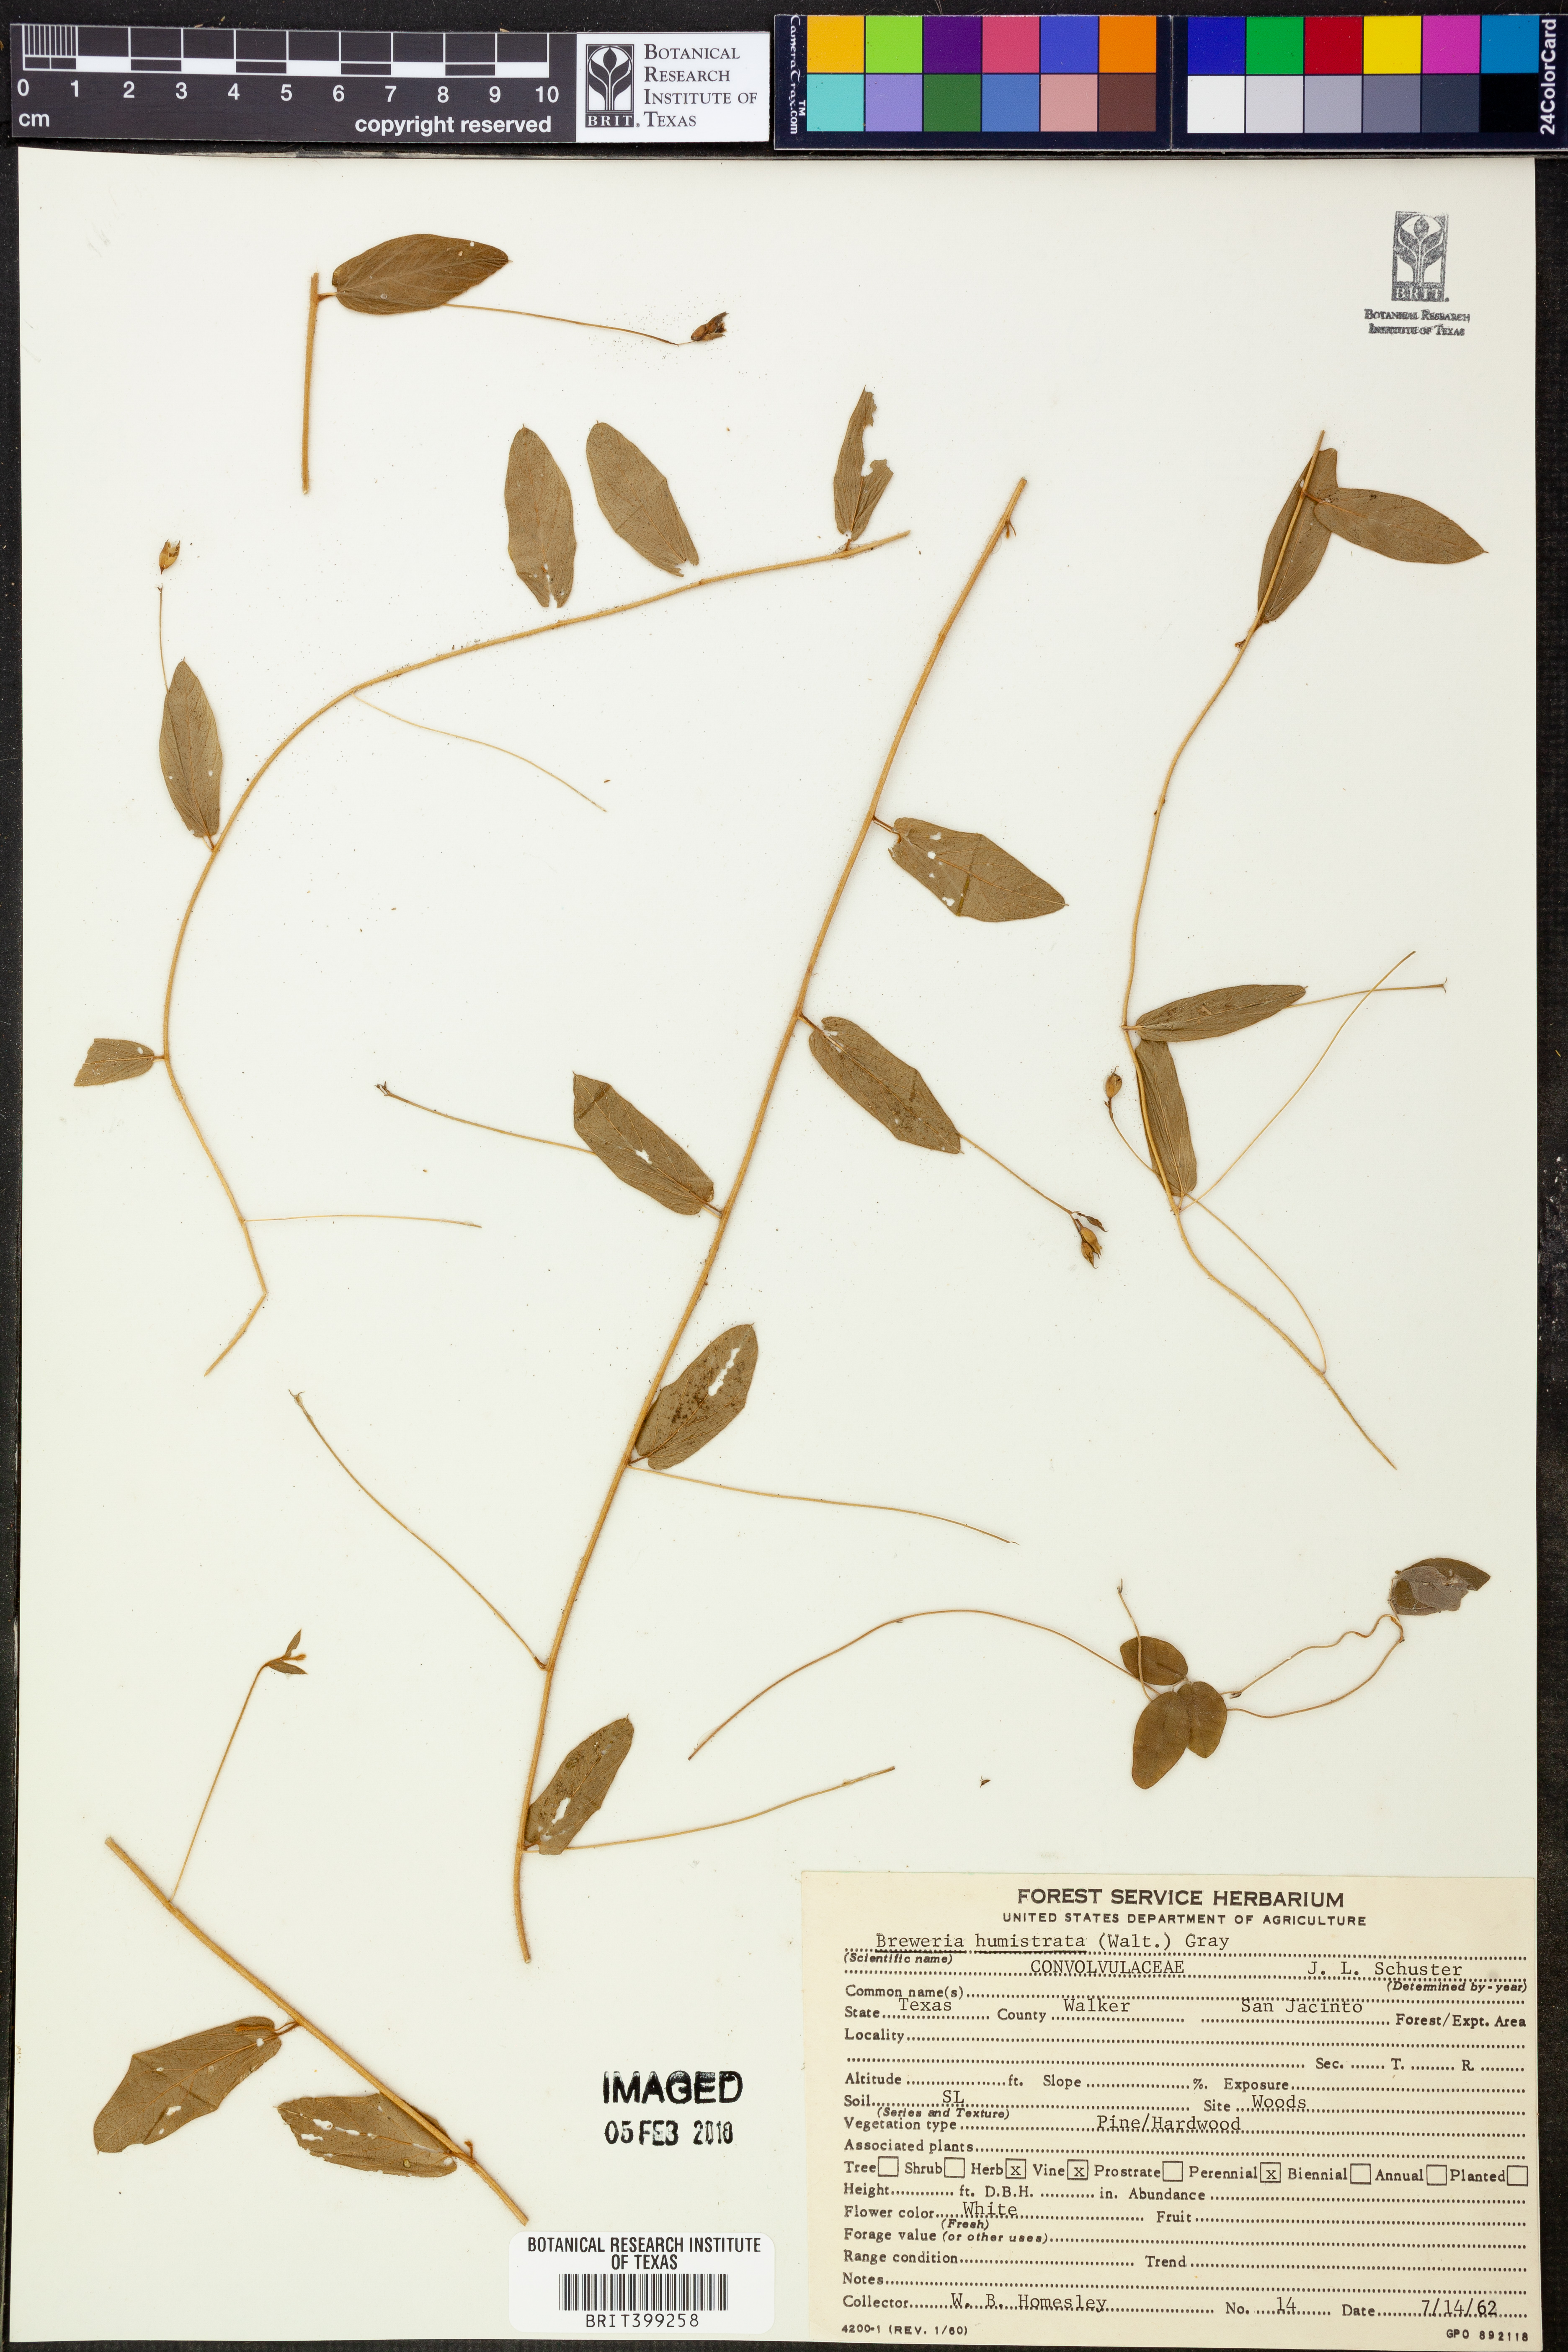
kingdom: Plantae
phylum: Tracheophyta
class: Magnoliopsida
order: Solanales
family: Convolvulaceae
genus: Stylisma
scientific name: Stylisma humistrata
